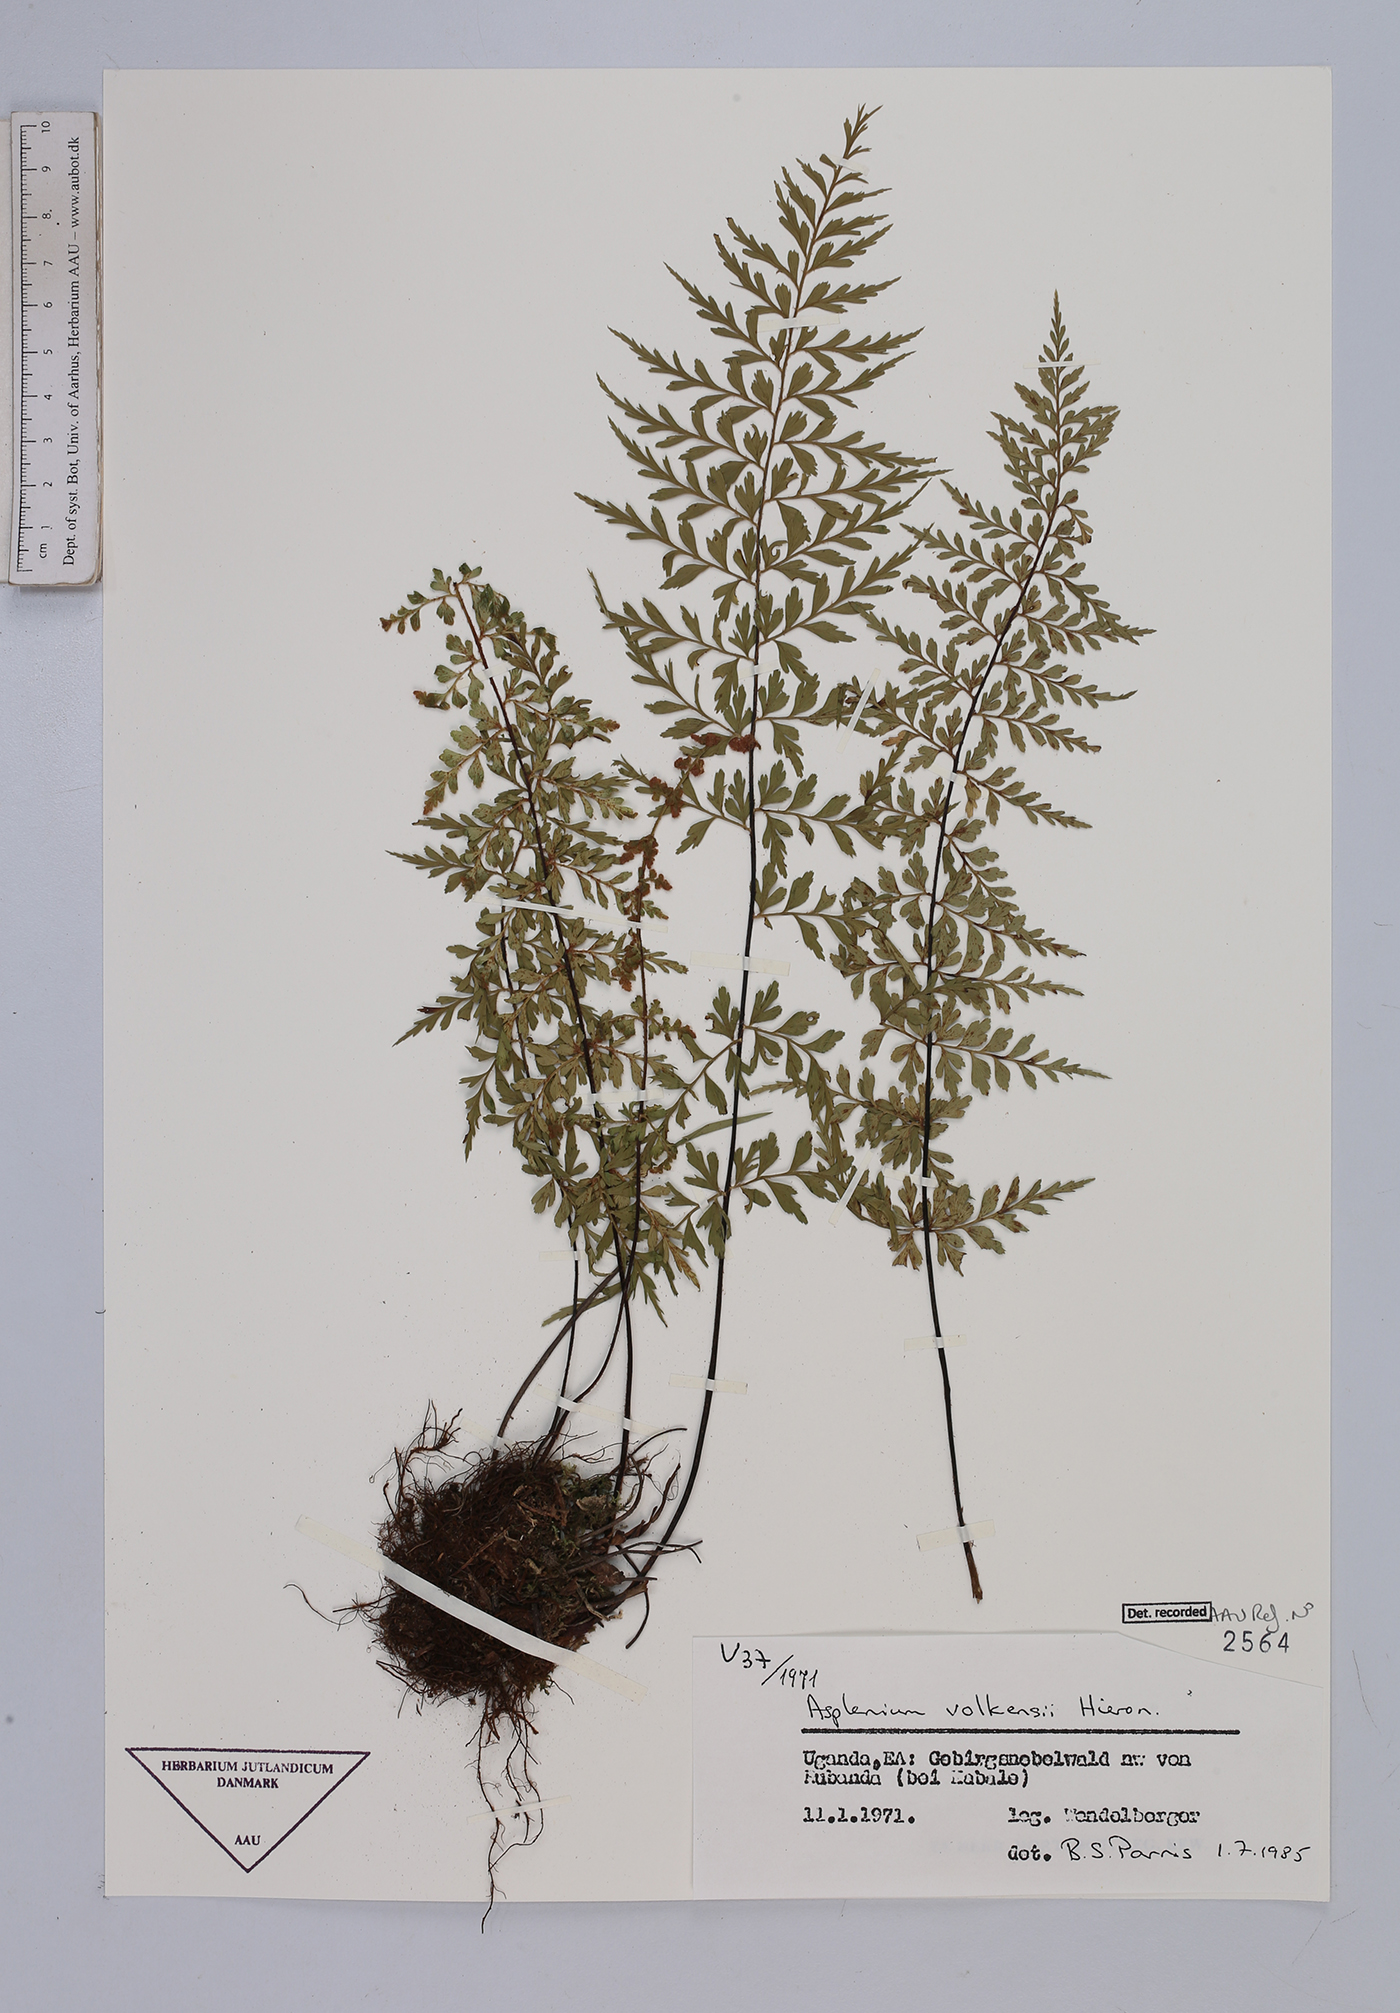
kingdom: Plantae
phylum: Tracheophyta
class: Polypodiopsida
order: Polypodiales
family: Aspleniaceae
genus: Asplenium
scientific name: Asplenium volkensii
